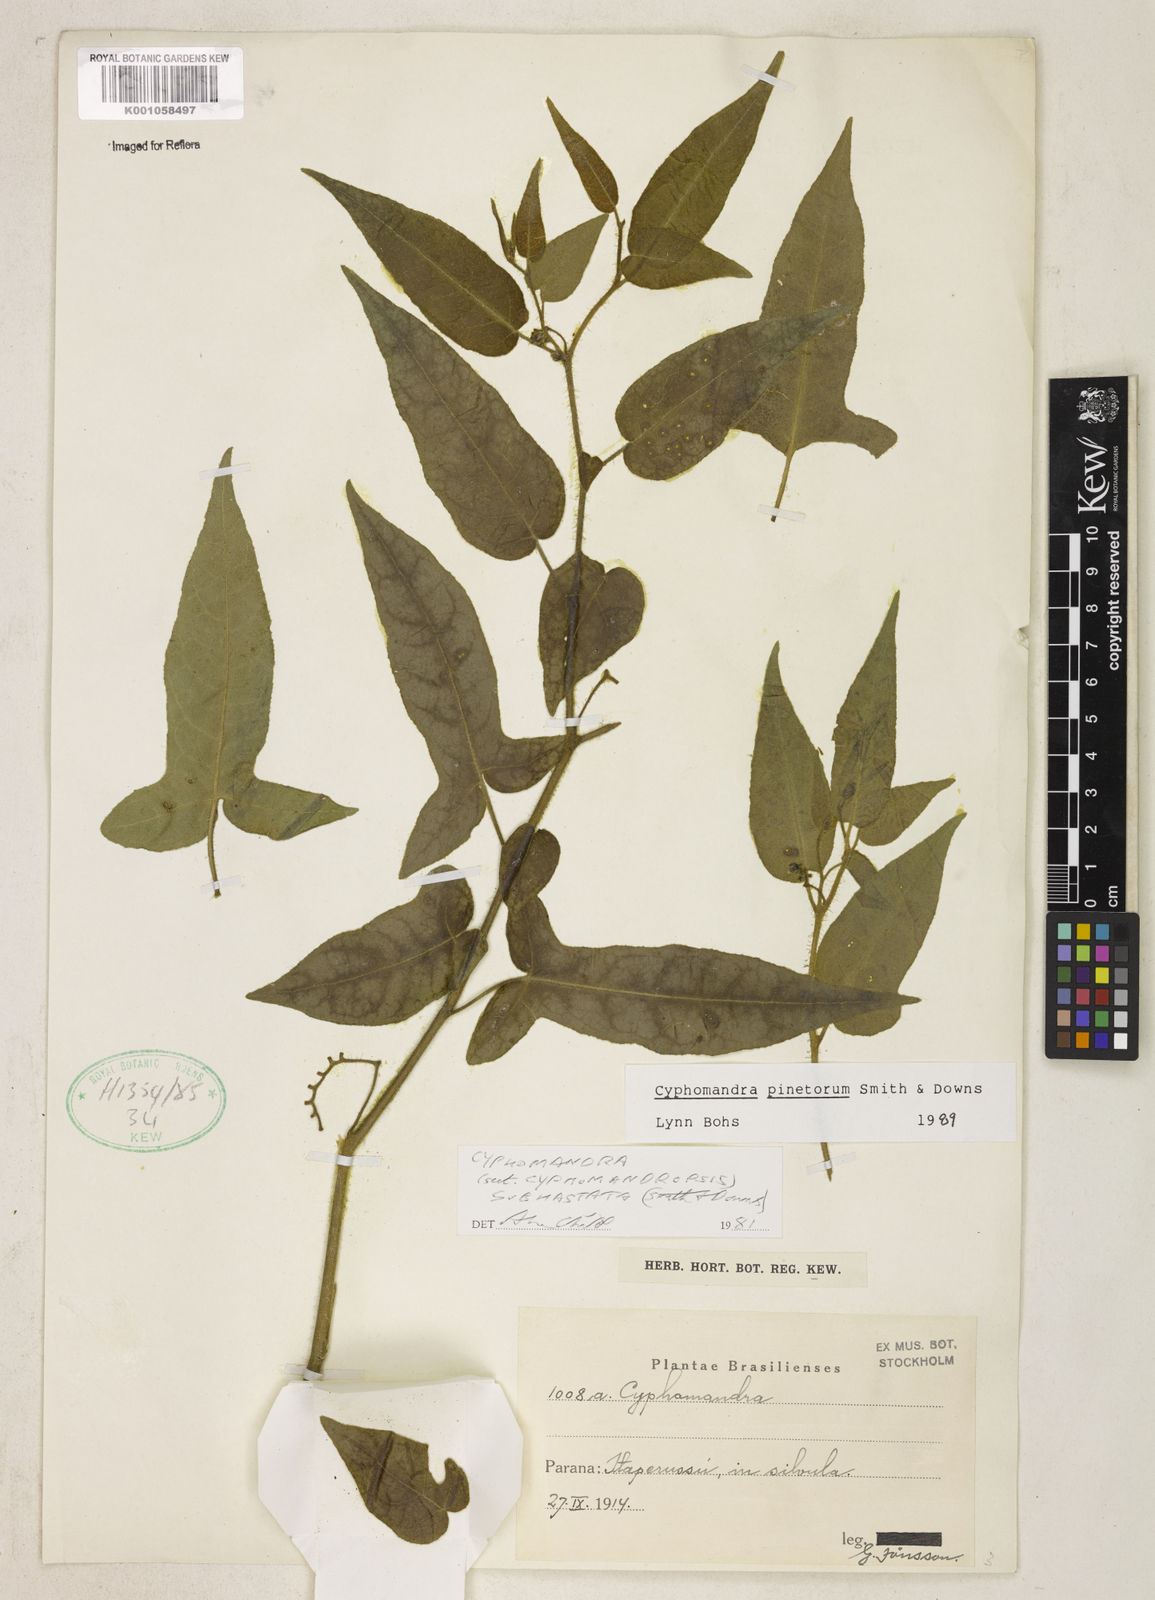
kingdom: Plantae
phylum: Tracheophyta
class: Magnoliopsida
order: Solanales
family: Solanaceae
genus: Solanum
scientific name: Solanum pinetorum
